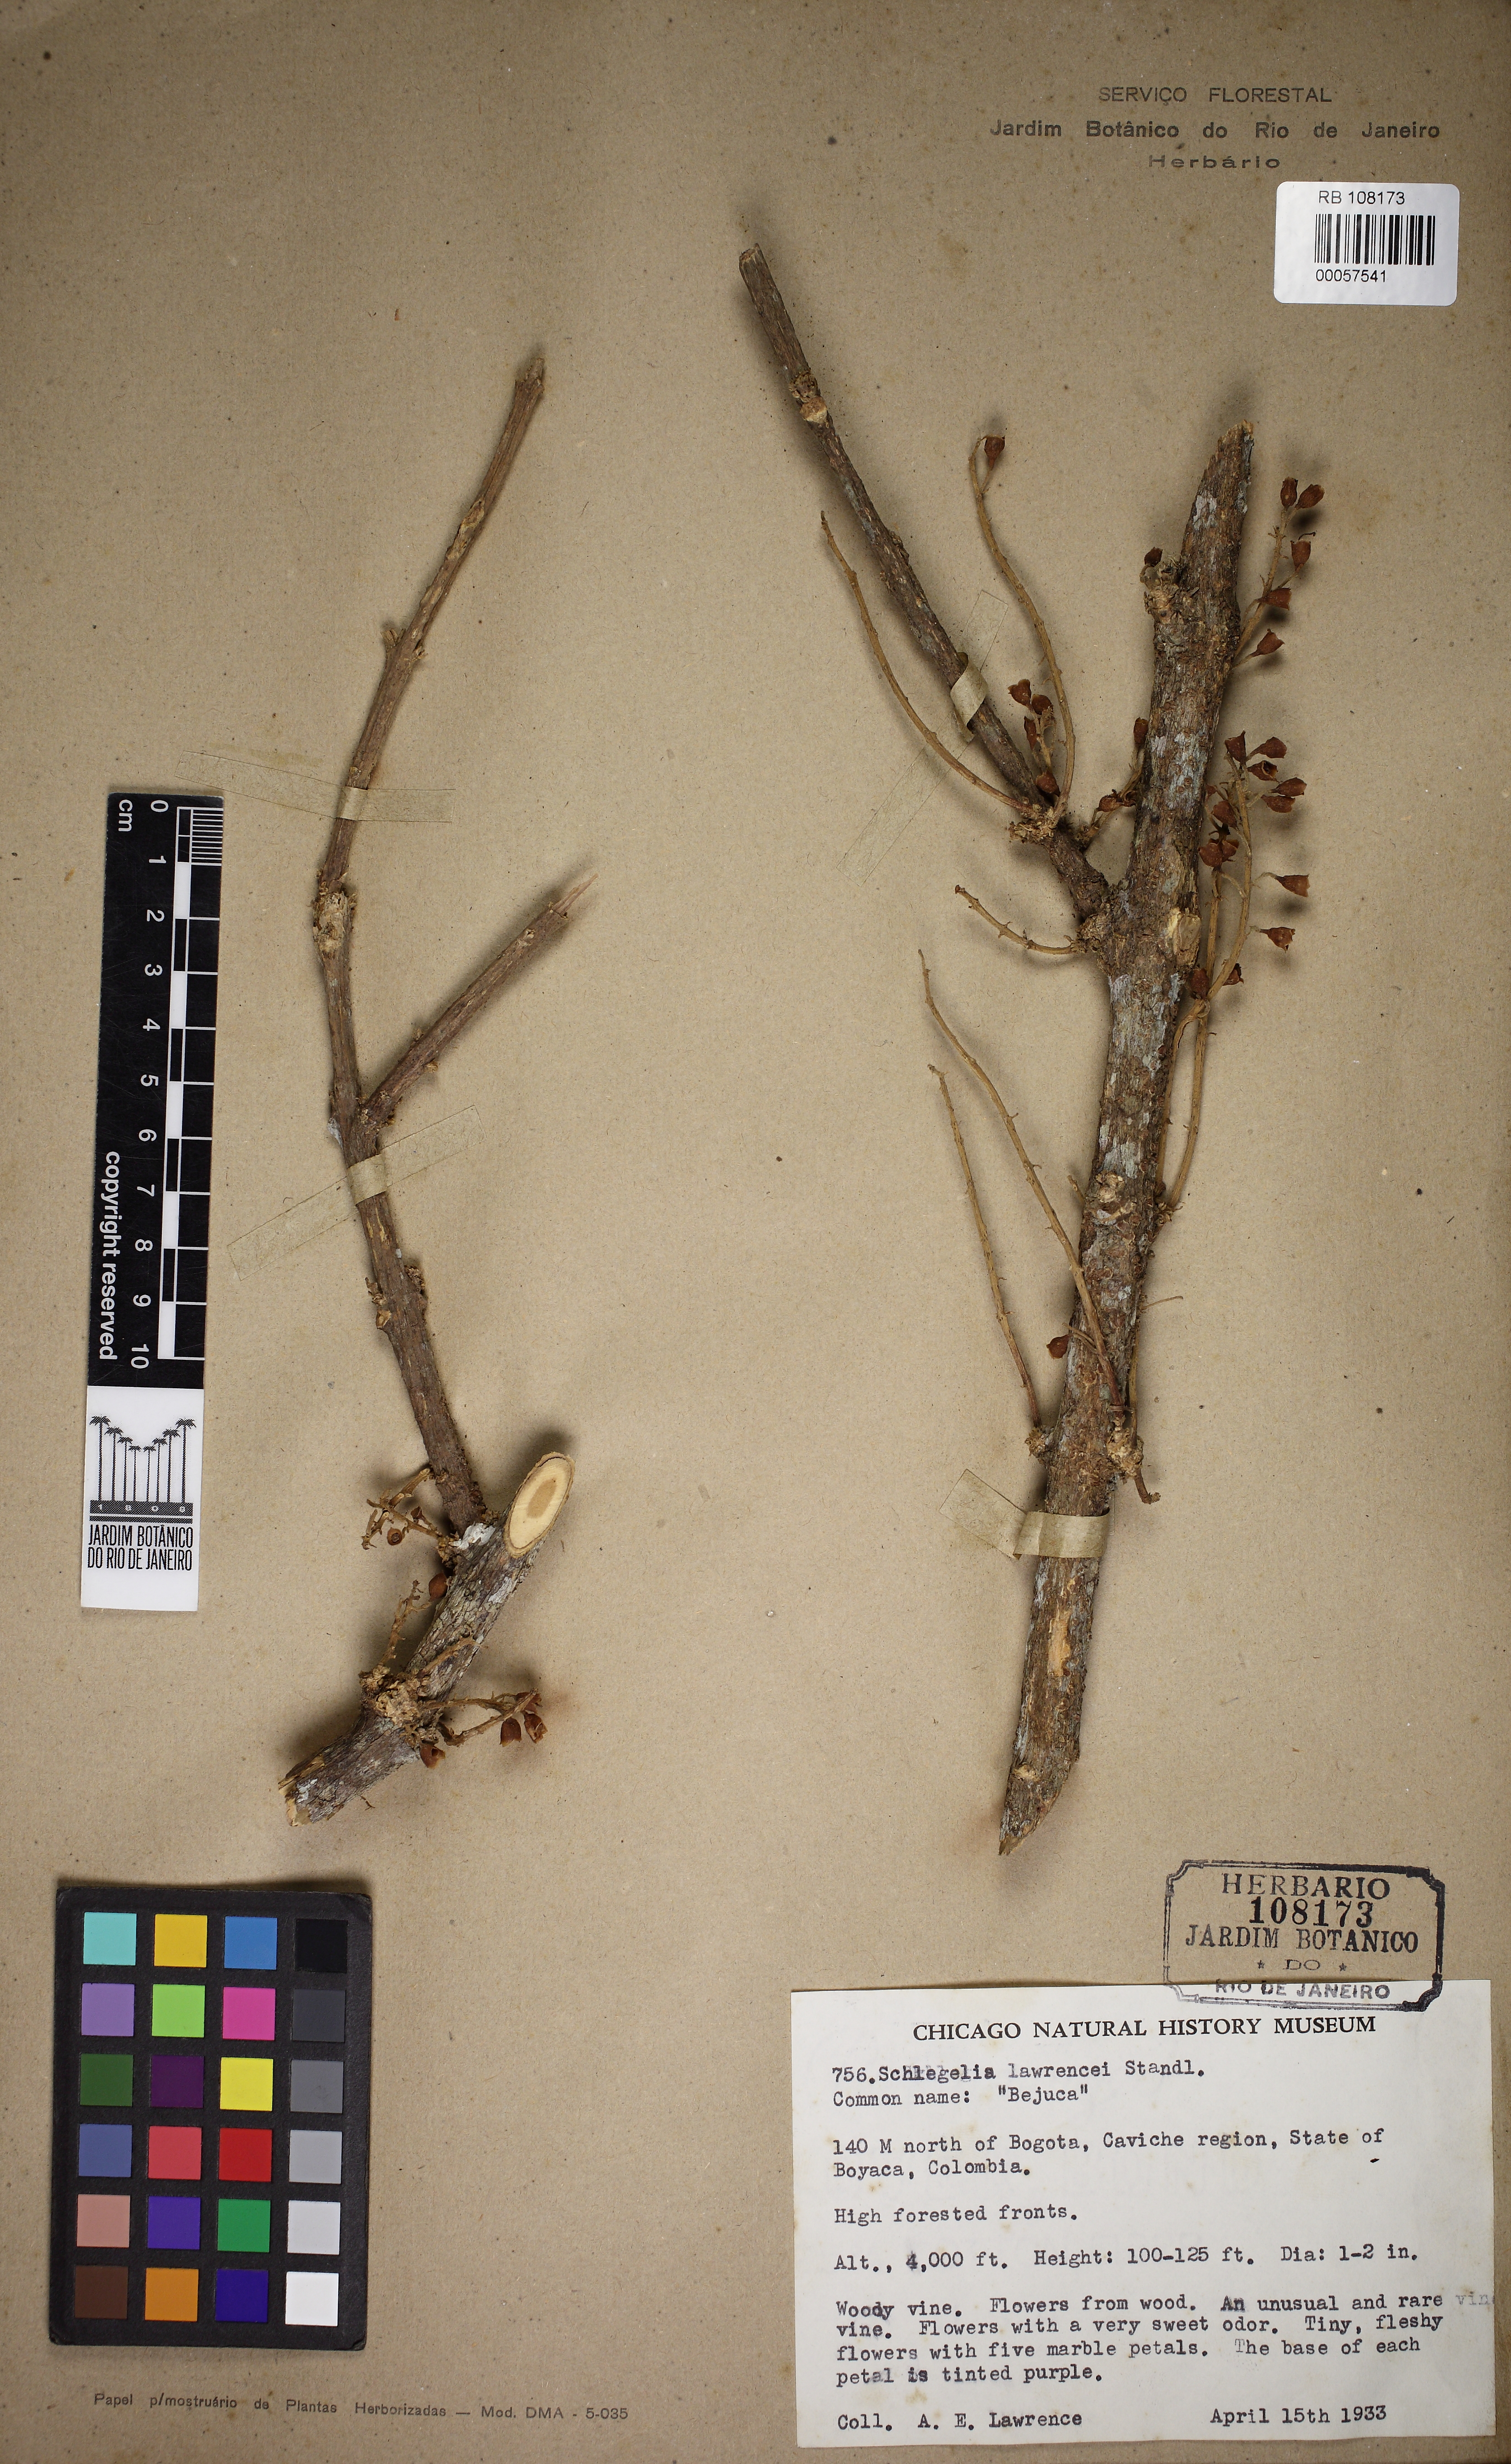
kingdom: Plantae
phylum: Tracheophyta
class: Magnoliopsida
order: Lamiales
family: Schlegeliaceae
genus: Schlegelia
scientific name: Schlegelia
